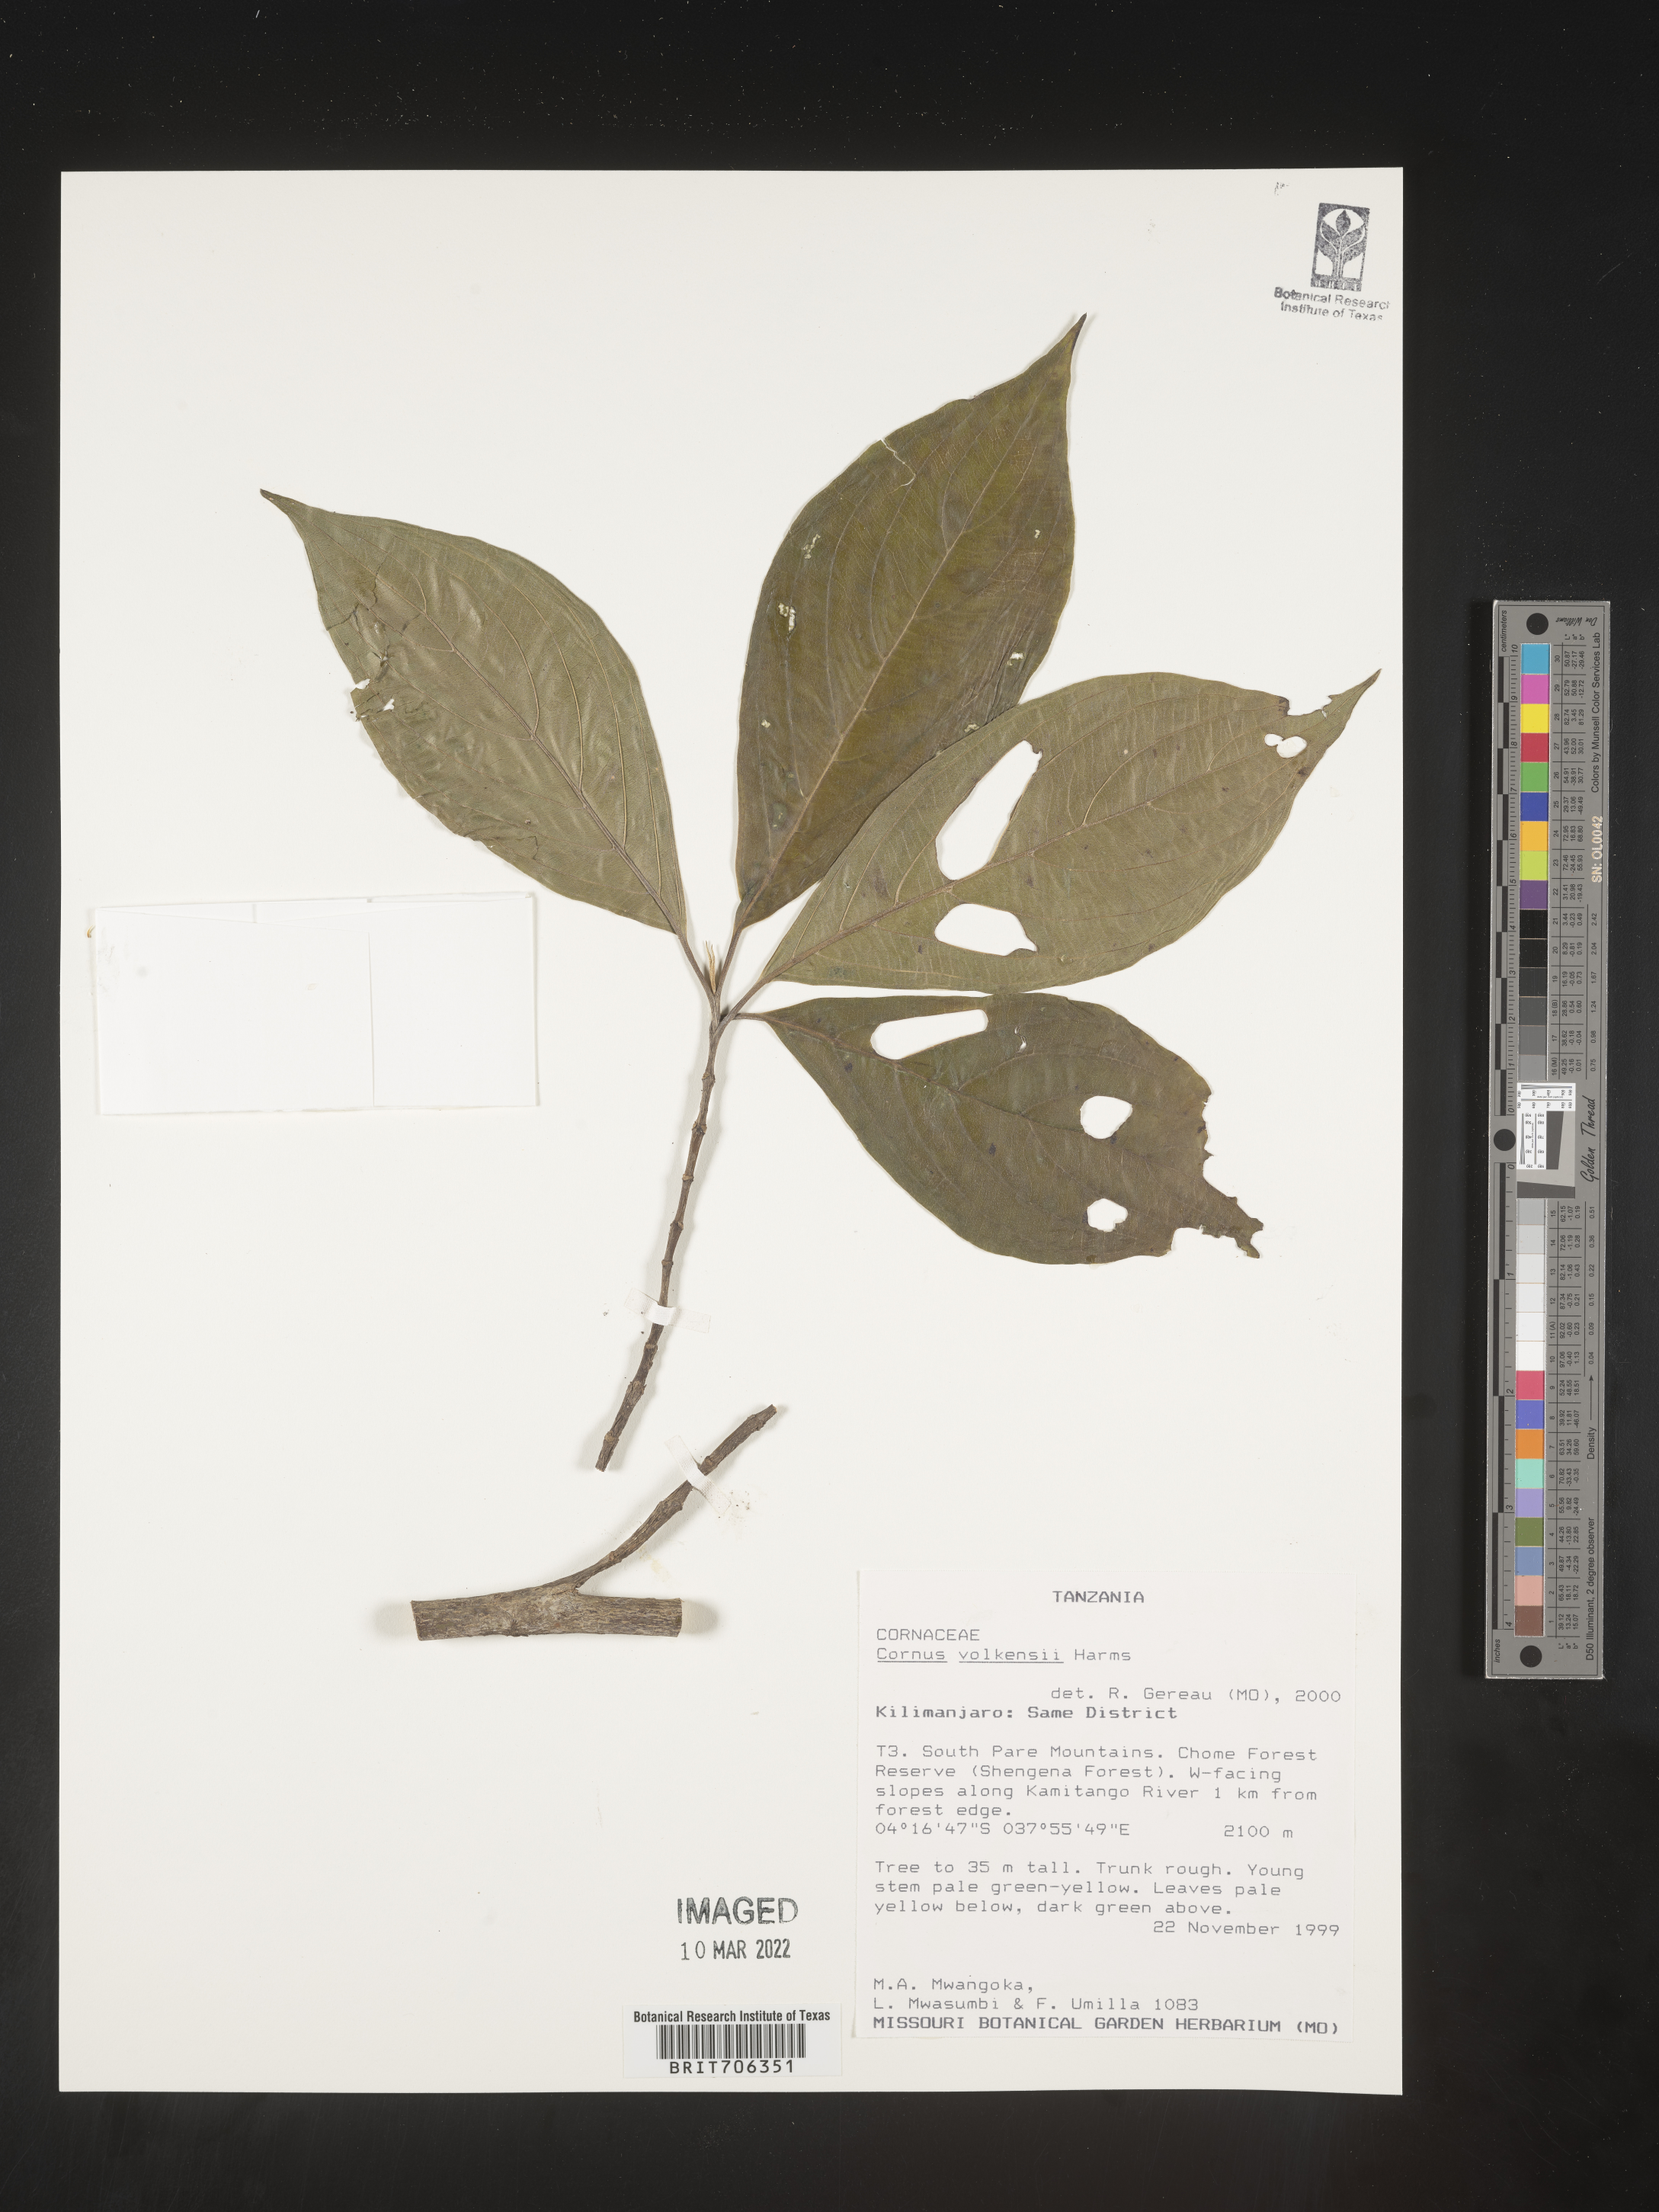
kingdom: Plantae
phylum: Tracheophyta
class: Magnoliopsida
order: Cornales
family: Cornaceae
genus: Cornus
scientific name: Cornus
